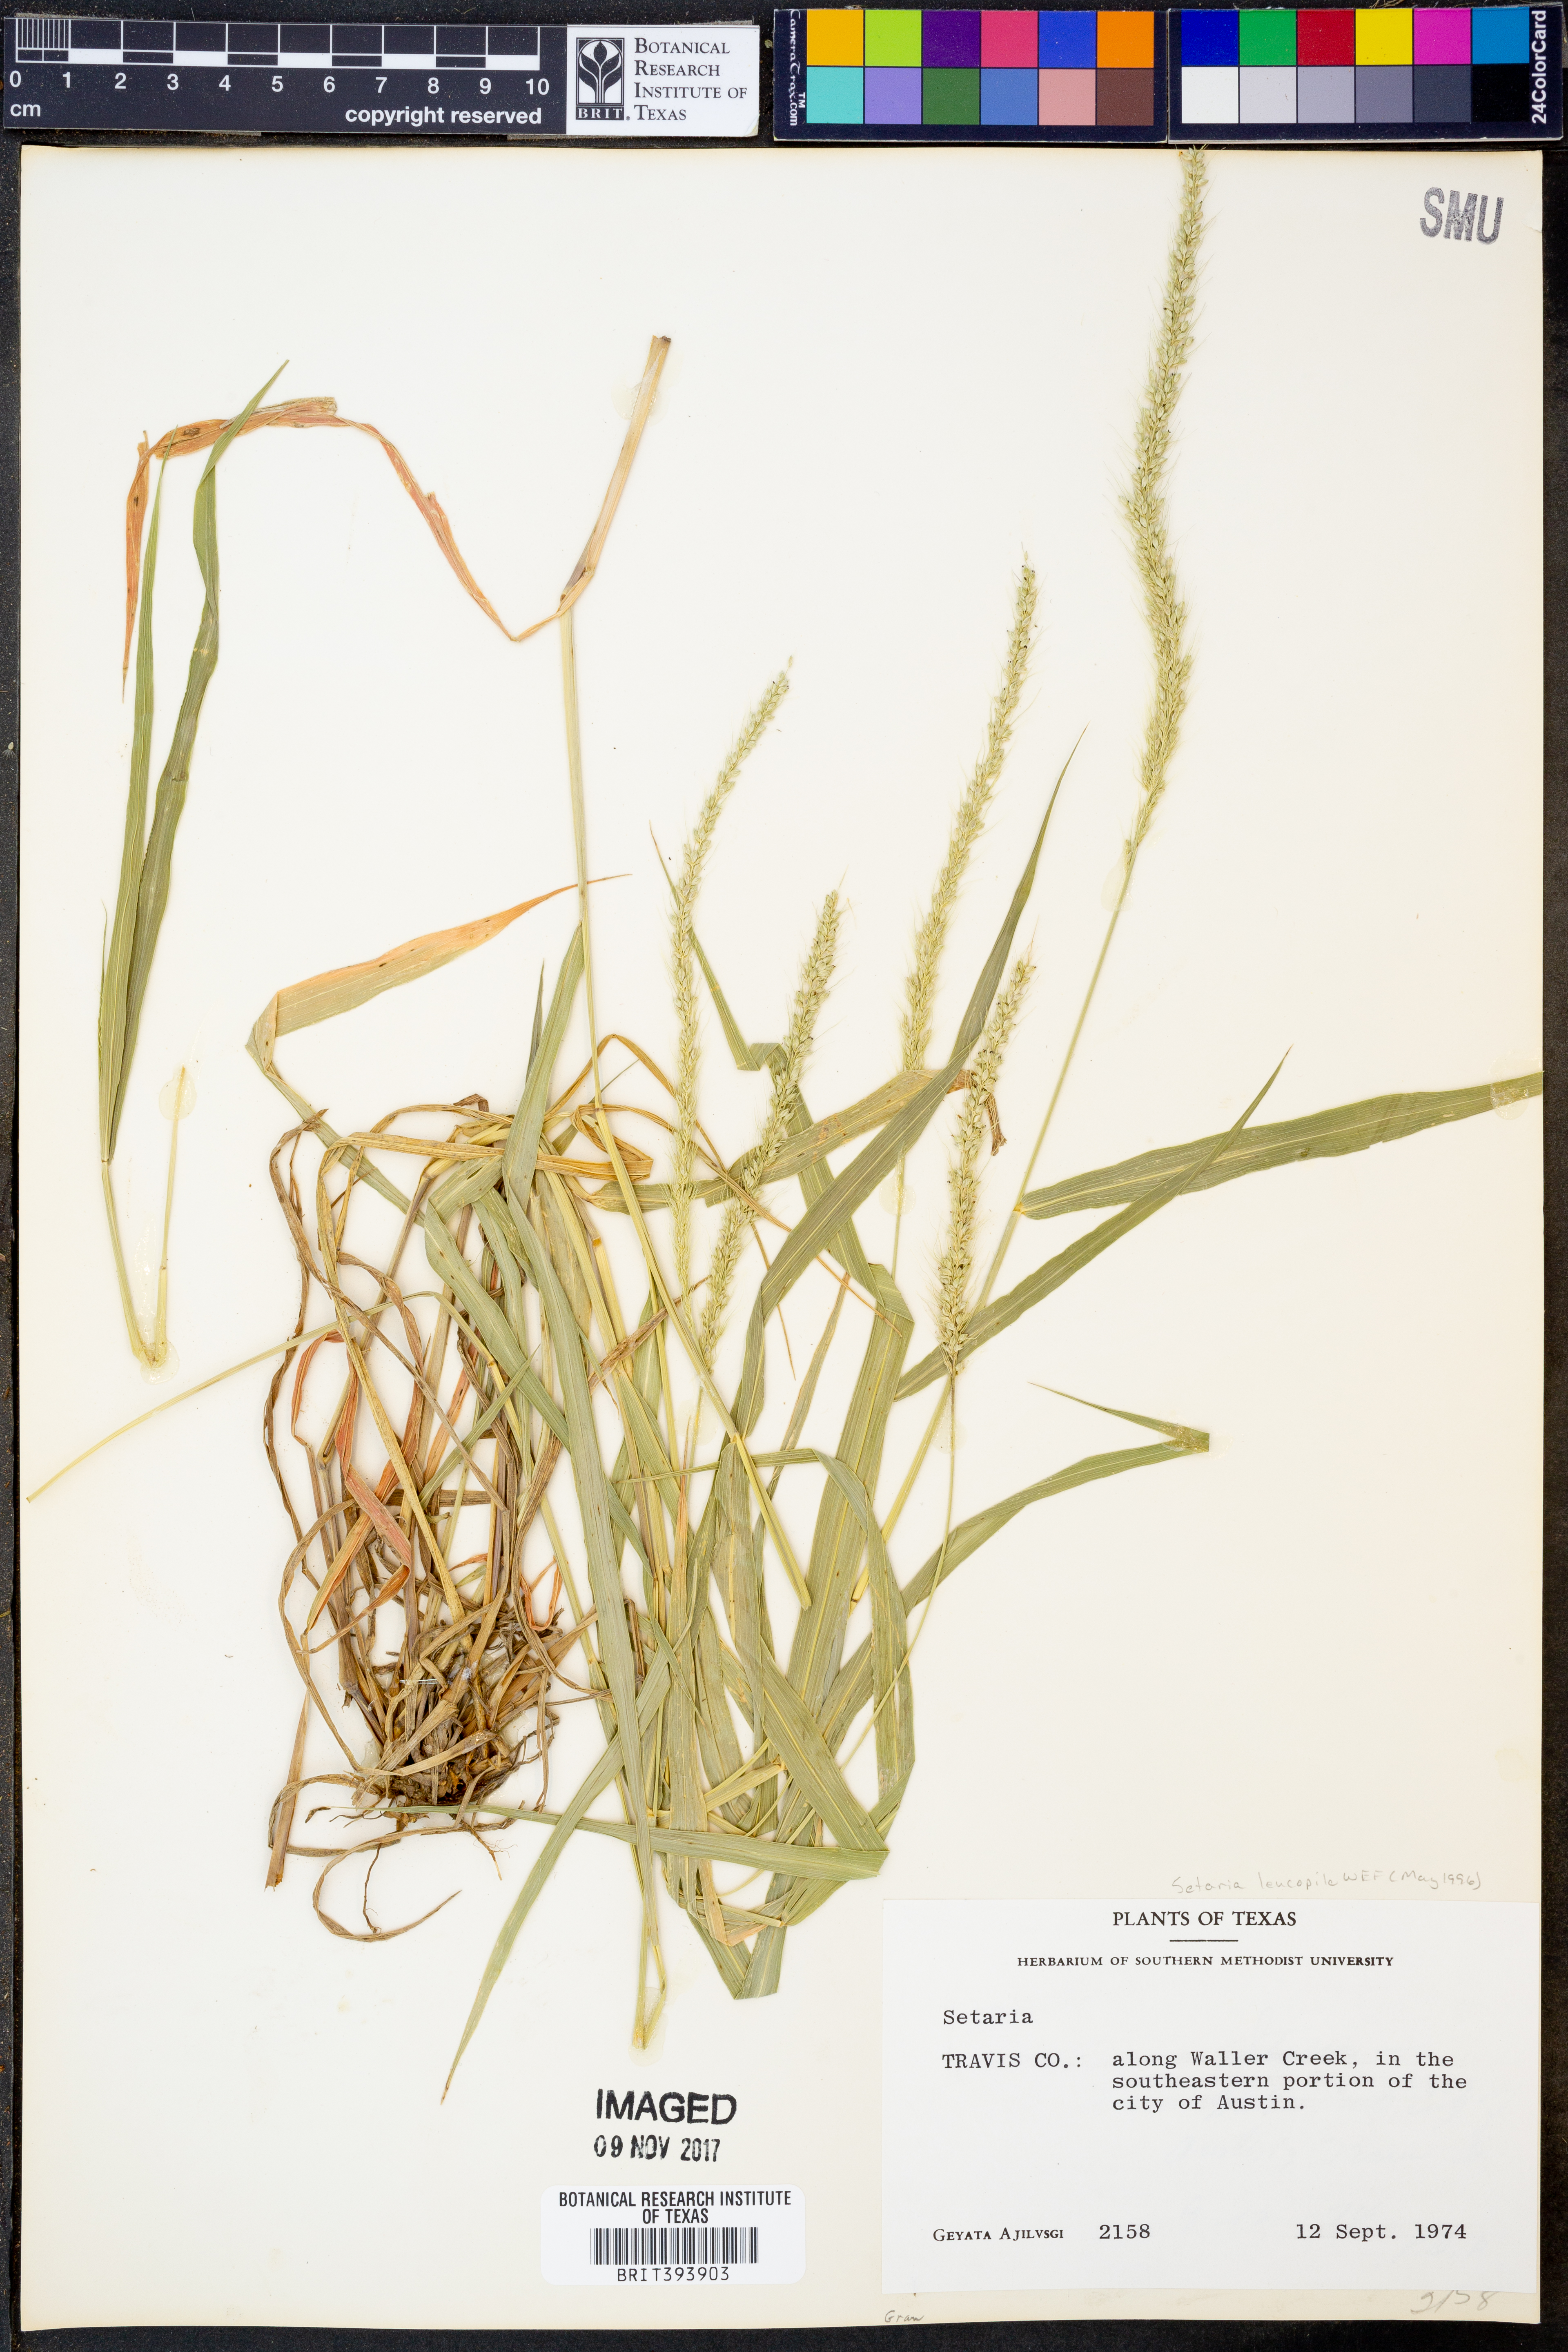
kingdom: Plantae
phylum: Tracheophyta
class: Liliopsida
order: Poales
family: Poaceae
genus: Setaria
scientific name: Setaria leucopila
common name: Plains bristle grass
